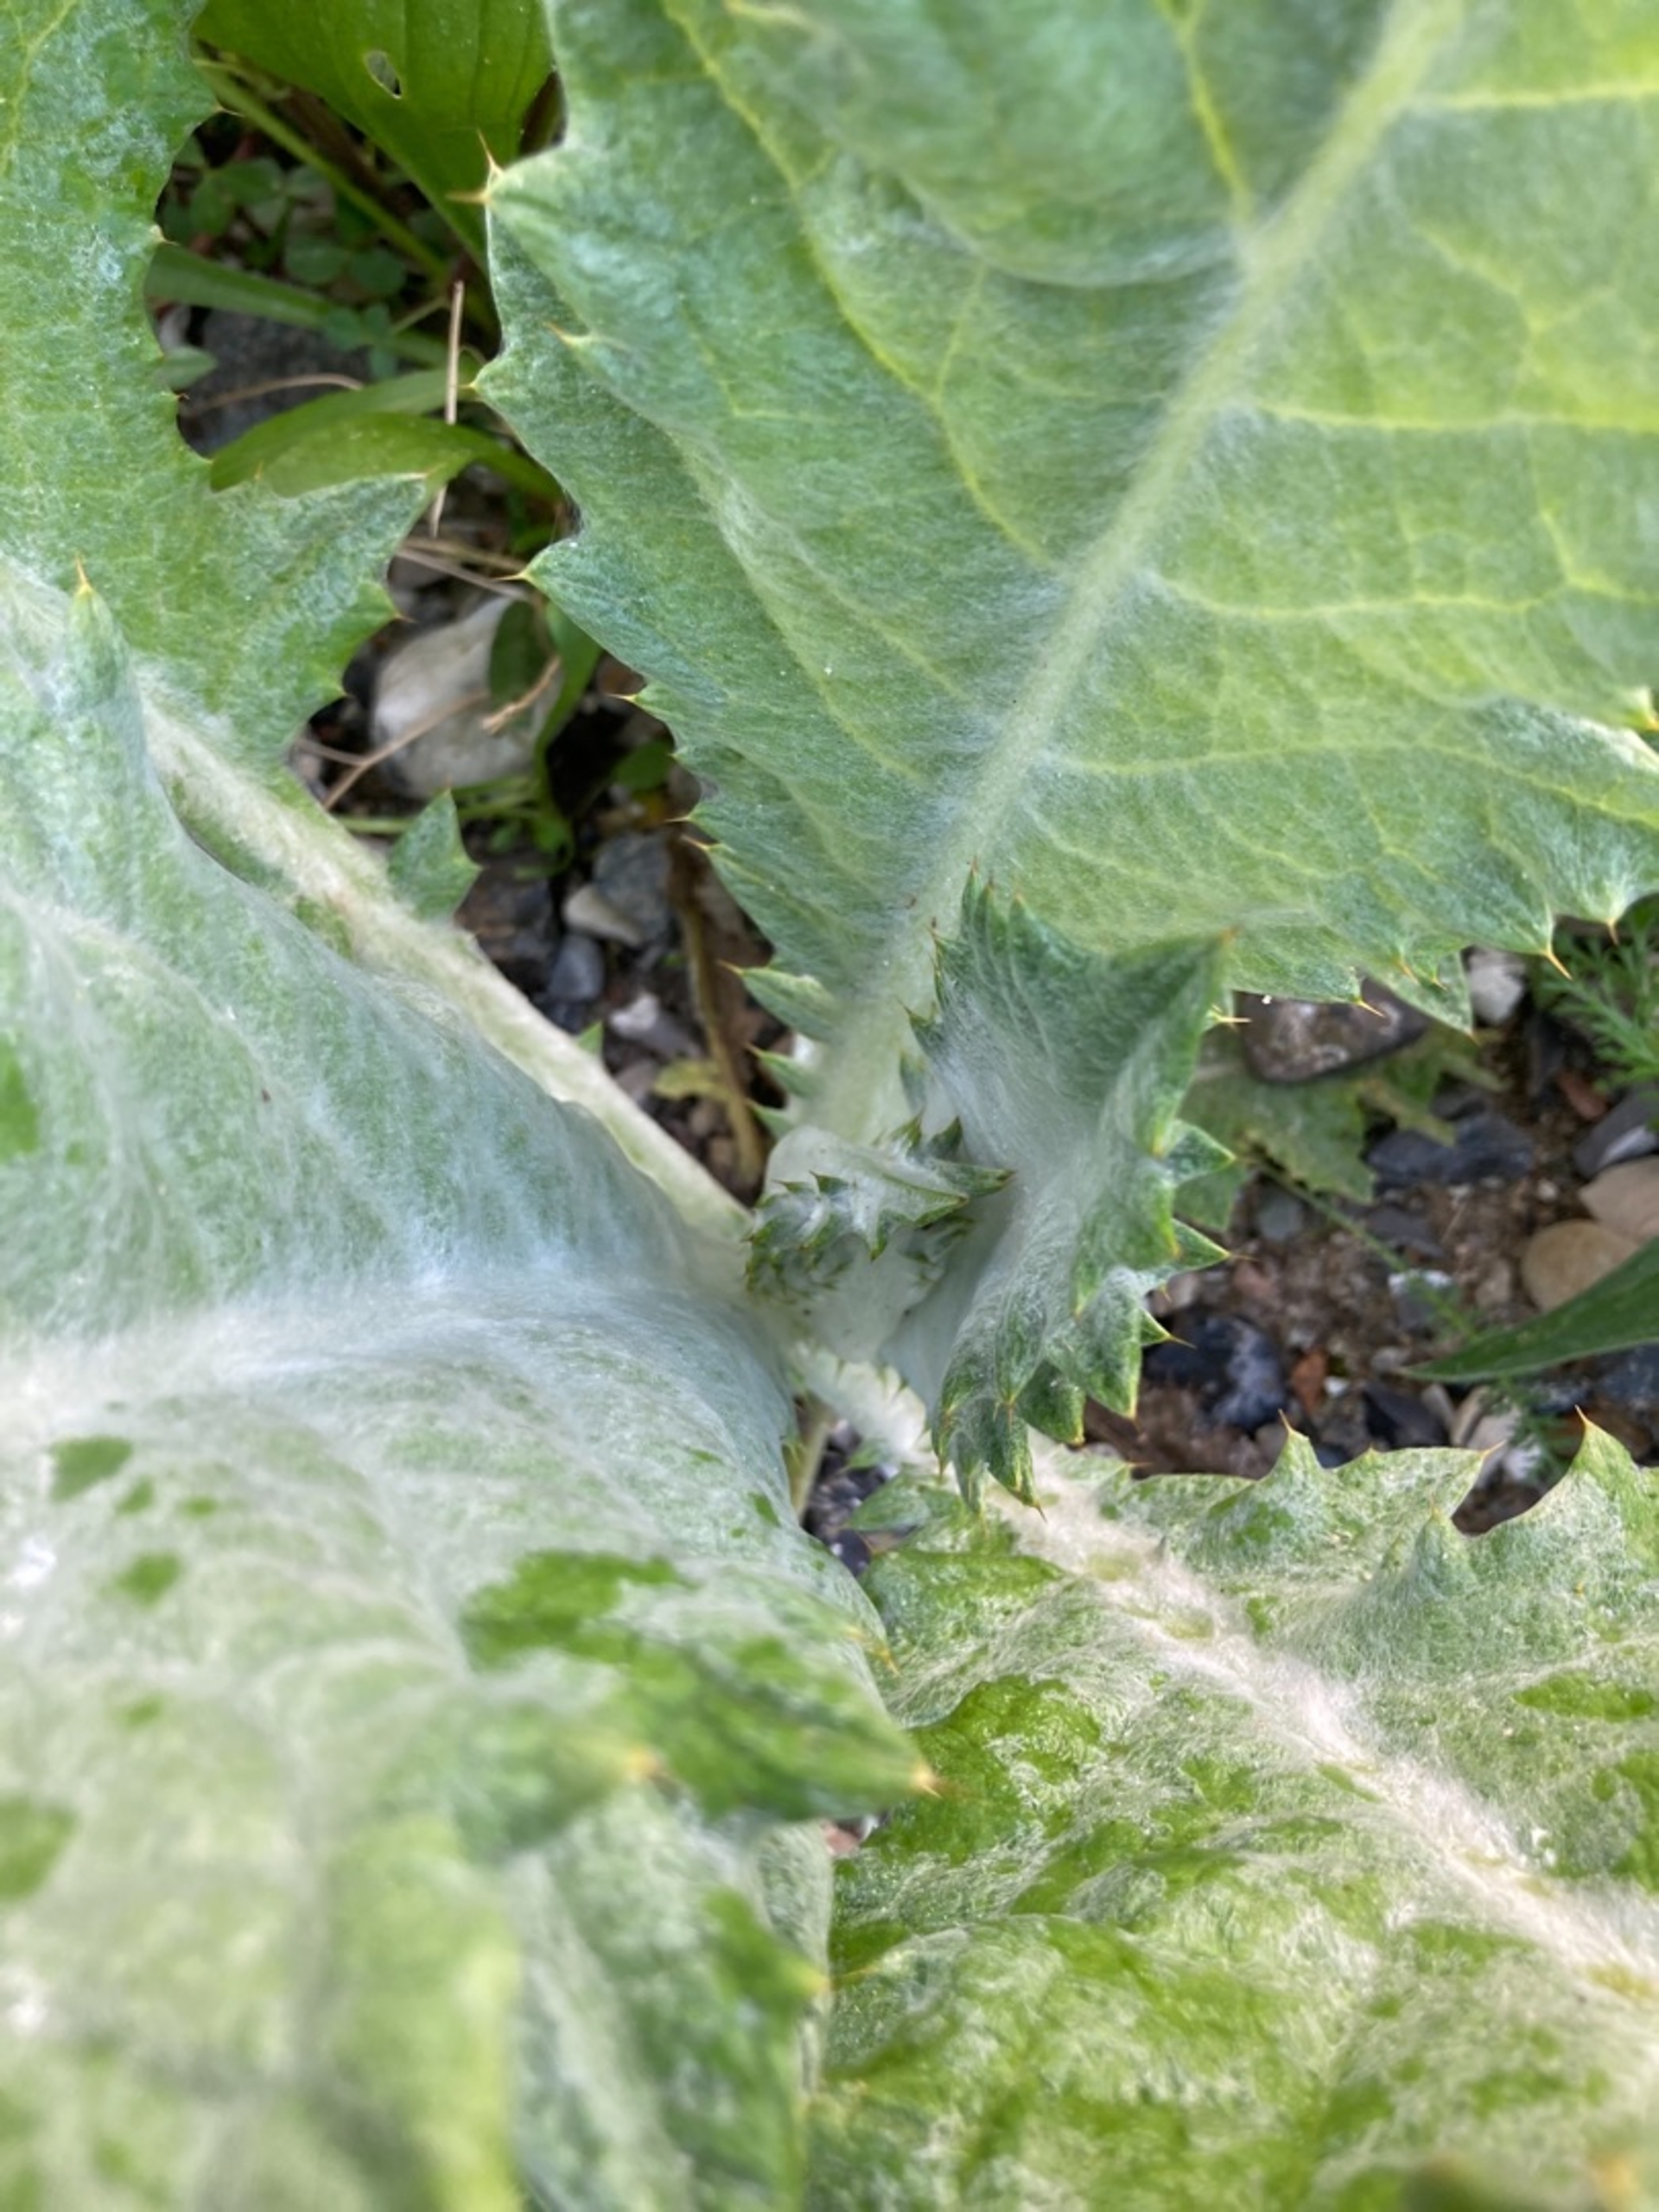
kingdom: Plantae
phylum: Tracheophyta
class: Magnoliopsida
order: Asterales
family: Asteraceae
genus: Onopordum
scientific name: Onopordum acanthium
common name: Æselfoder
